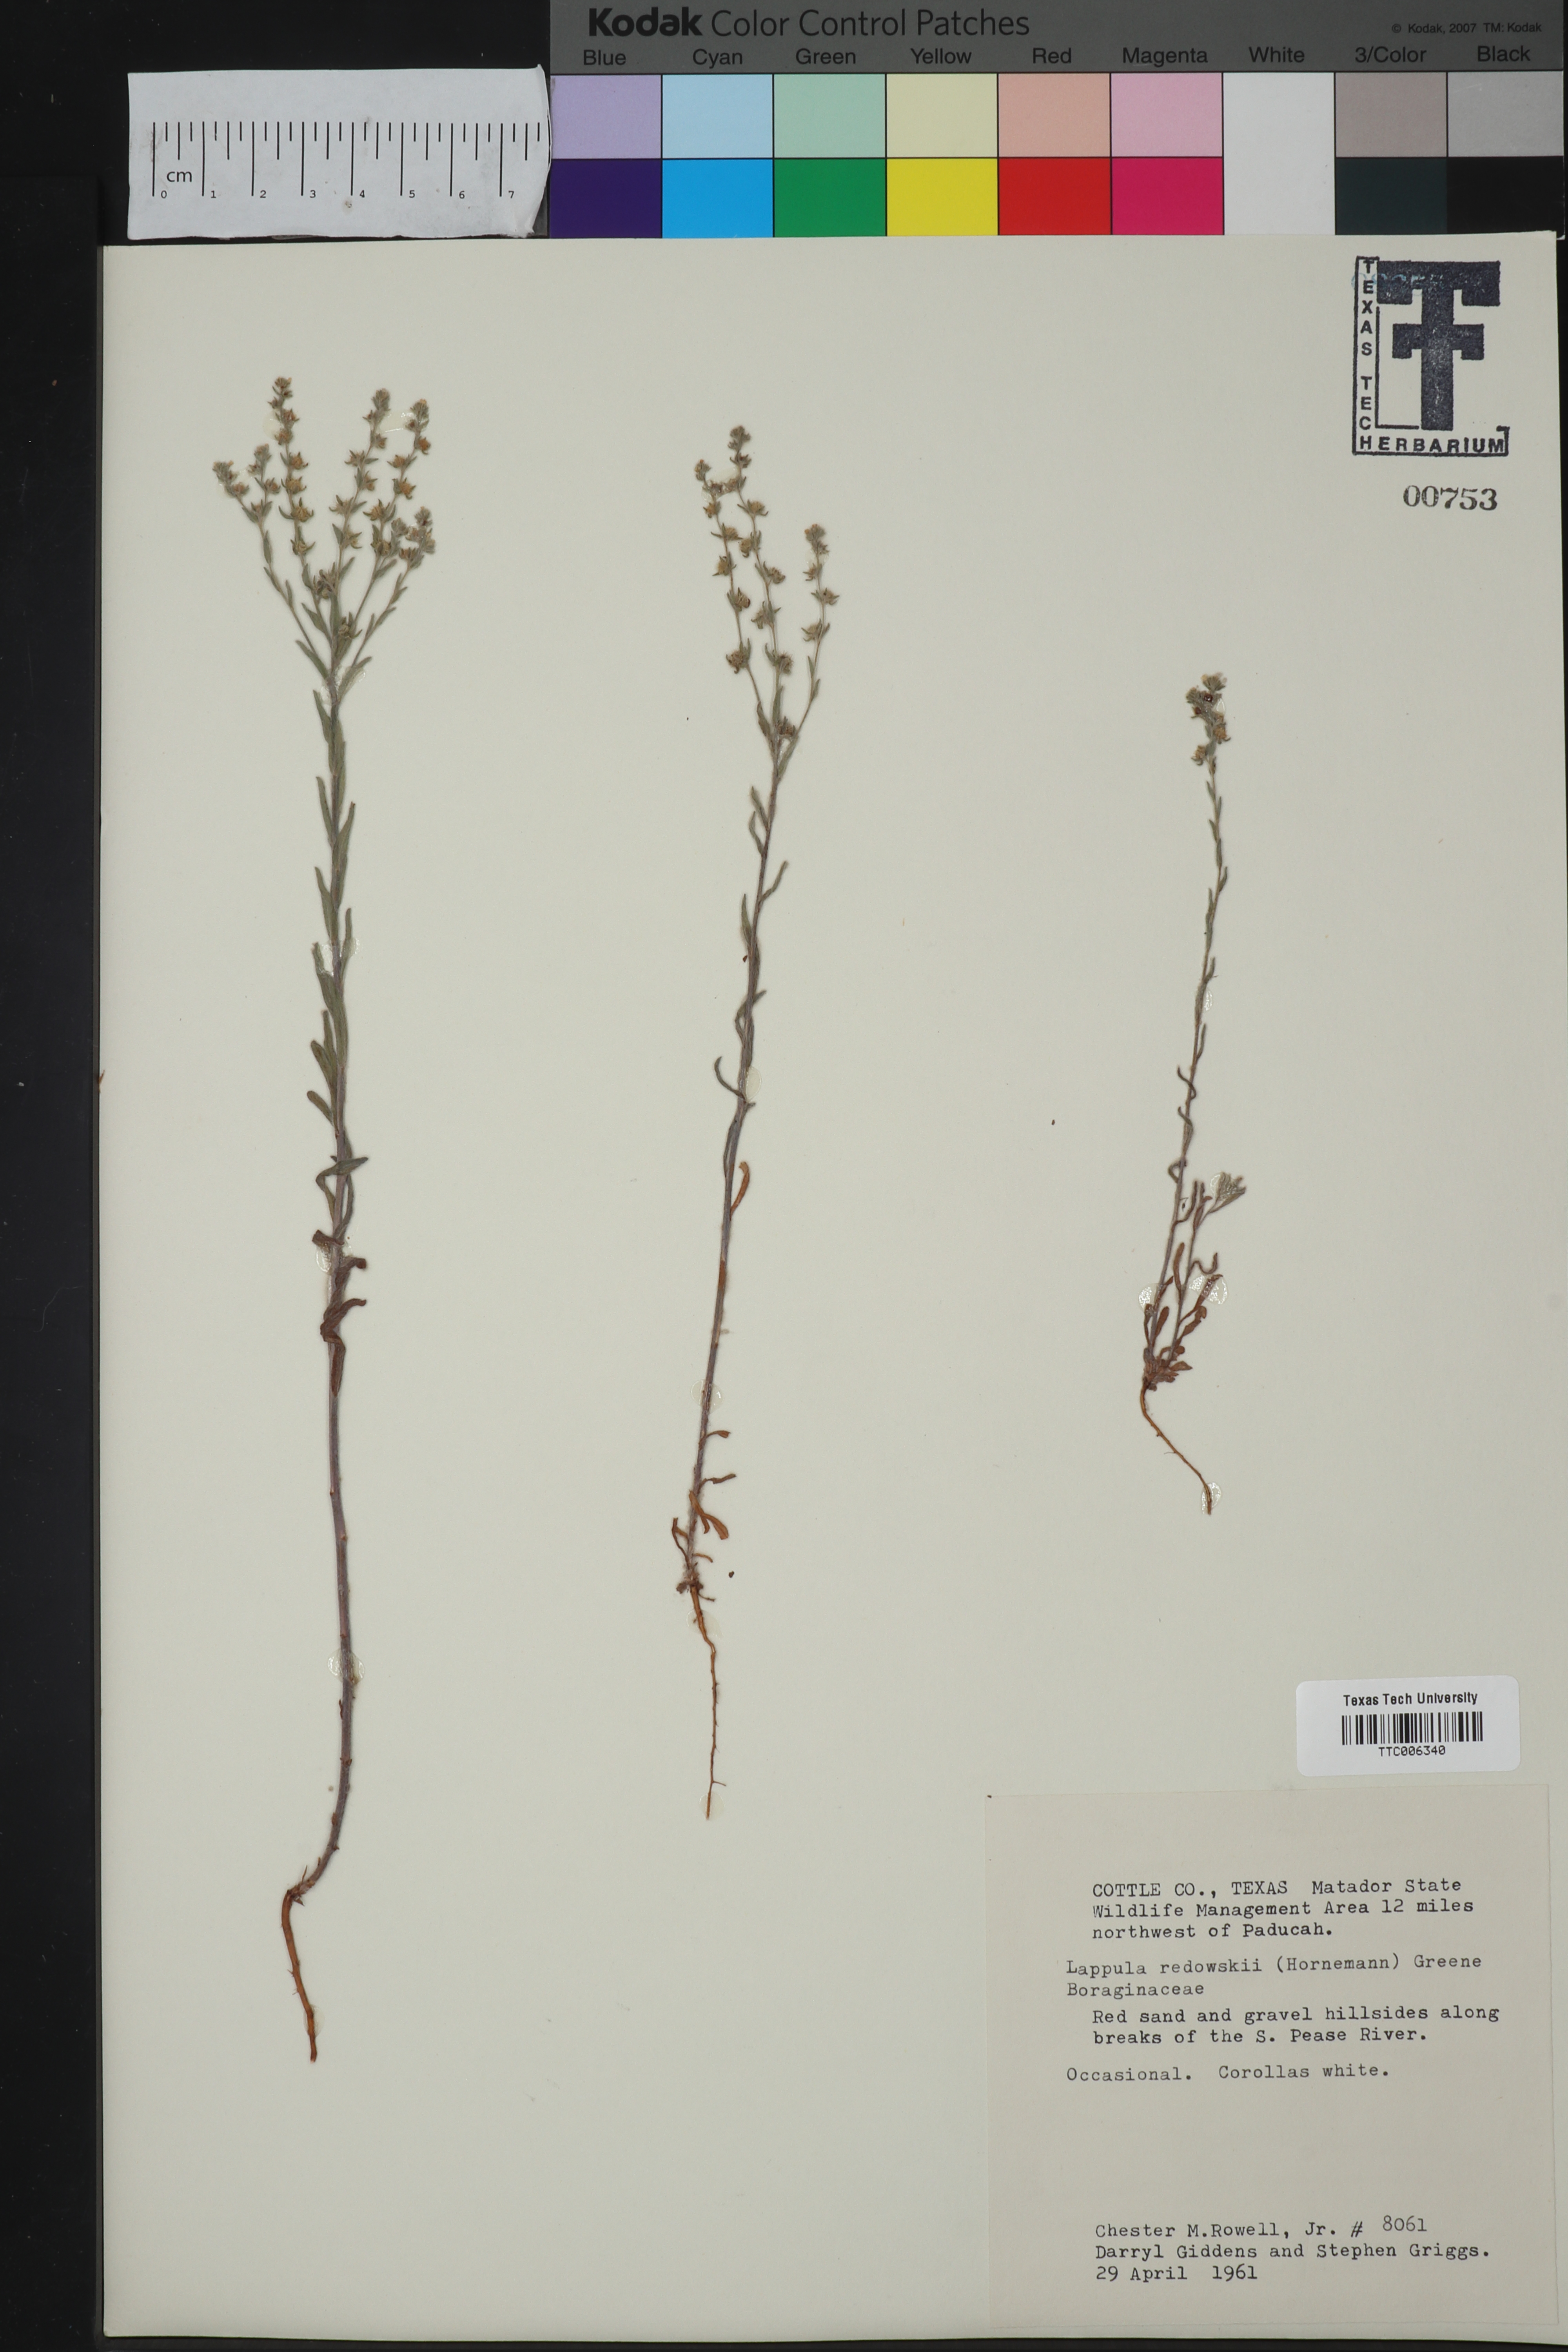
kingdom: Plantae
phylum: Tracheophyta
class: Magnoliopsida
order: Boraginales
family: Boraginaceae
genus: Lappula
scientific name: Lappula redowskii
